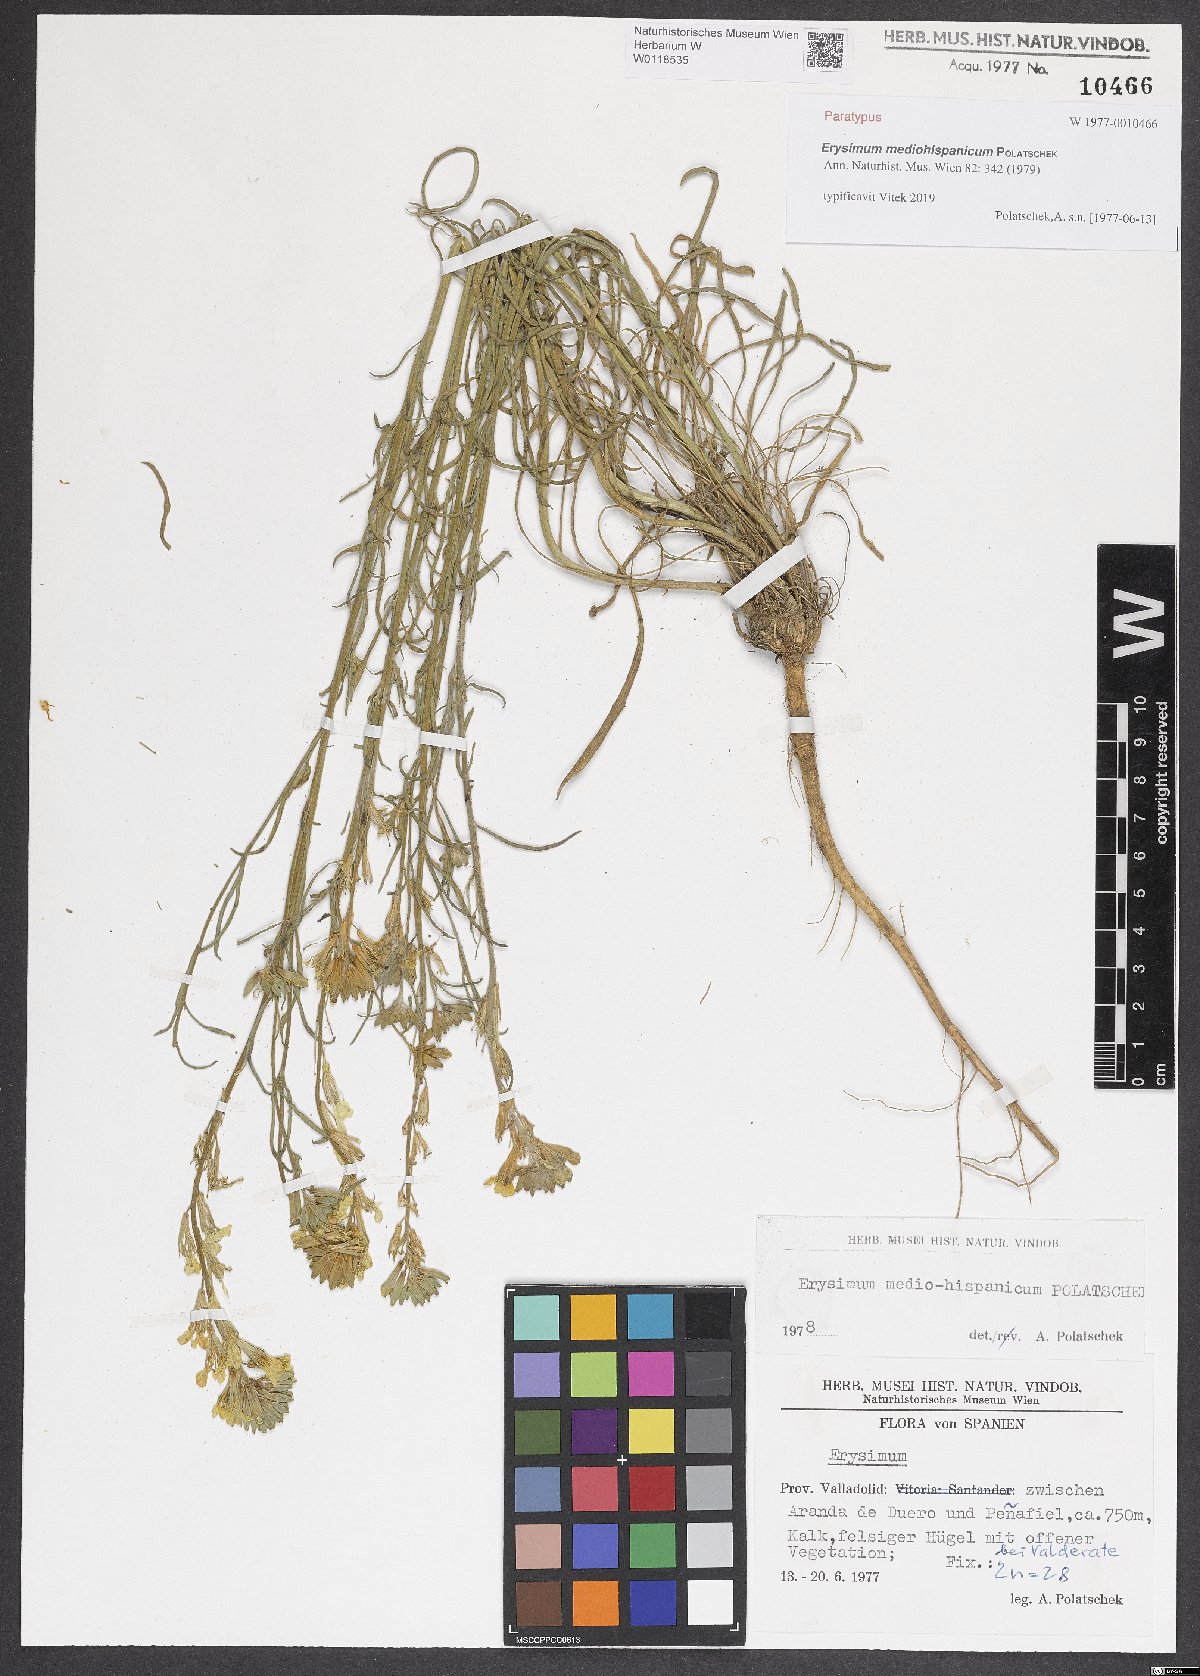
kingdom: Plantae
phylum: Tracheophyta
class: Magnoliopsida
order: Brassicales
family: Brassicaceae
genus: Erysimum
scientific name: Erysimum nevadense
